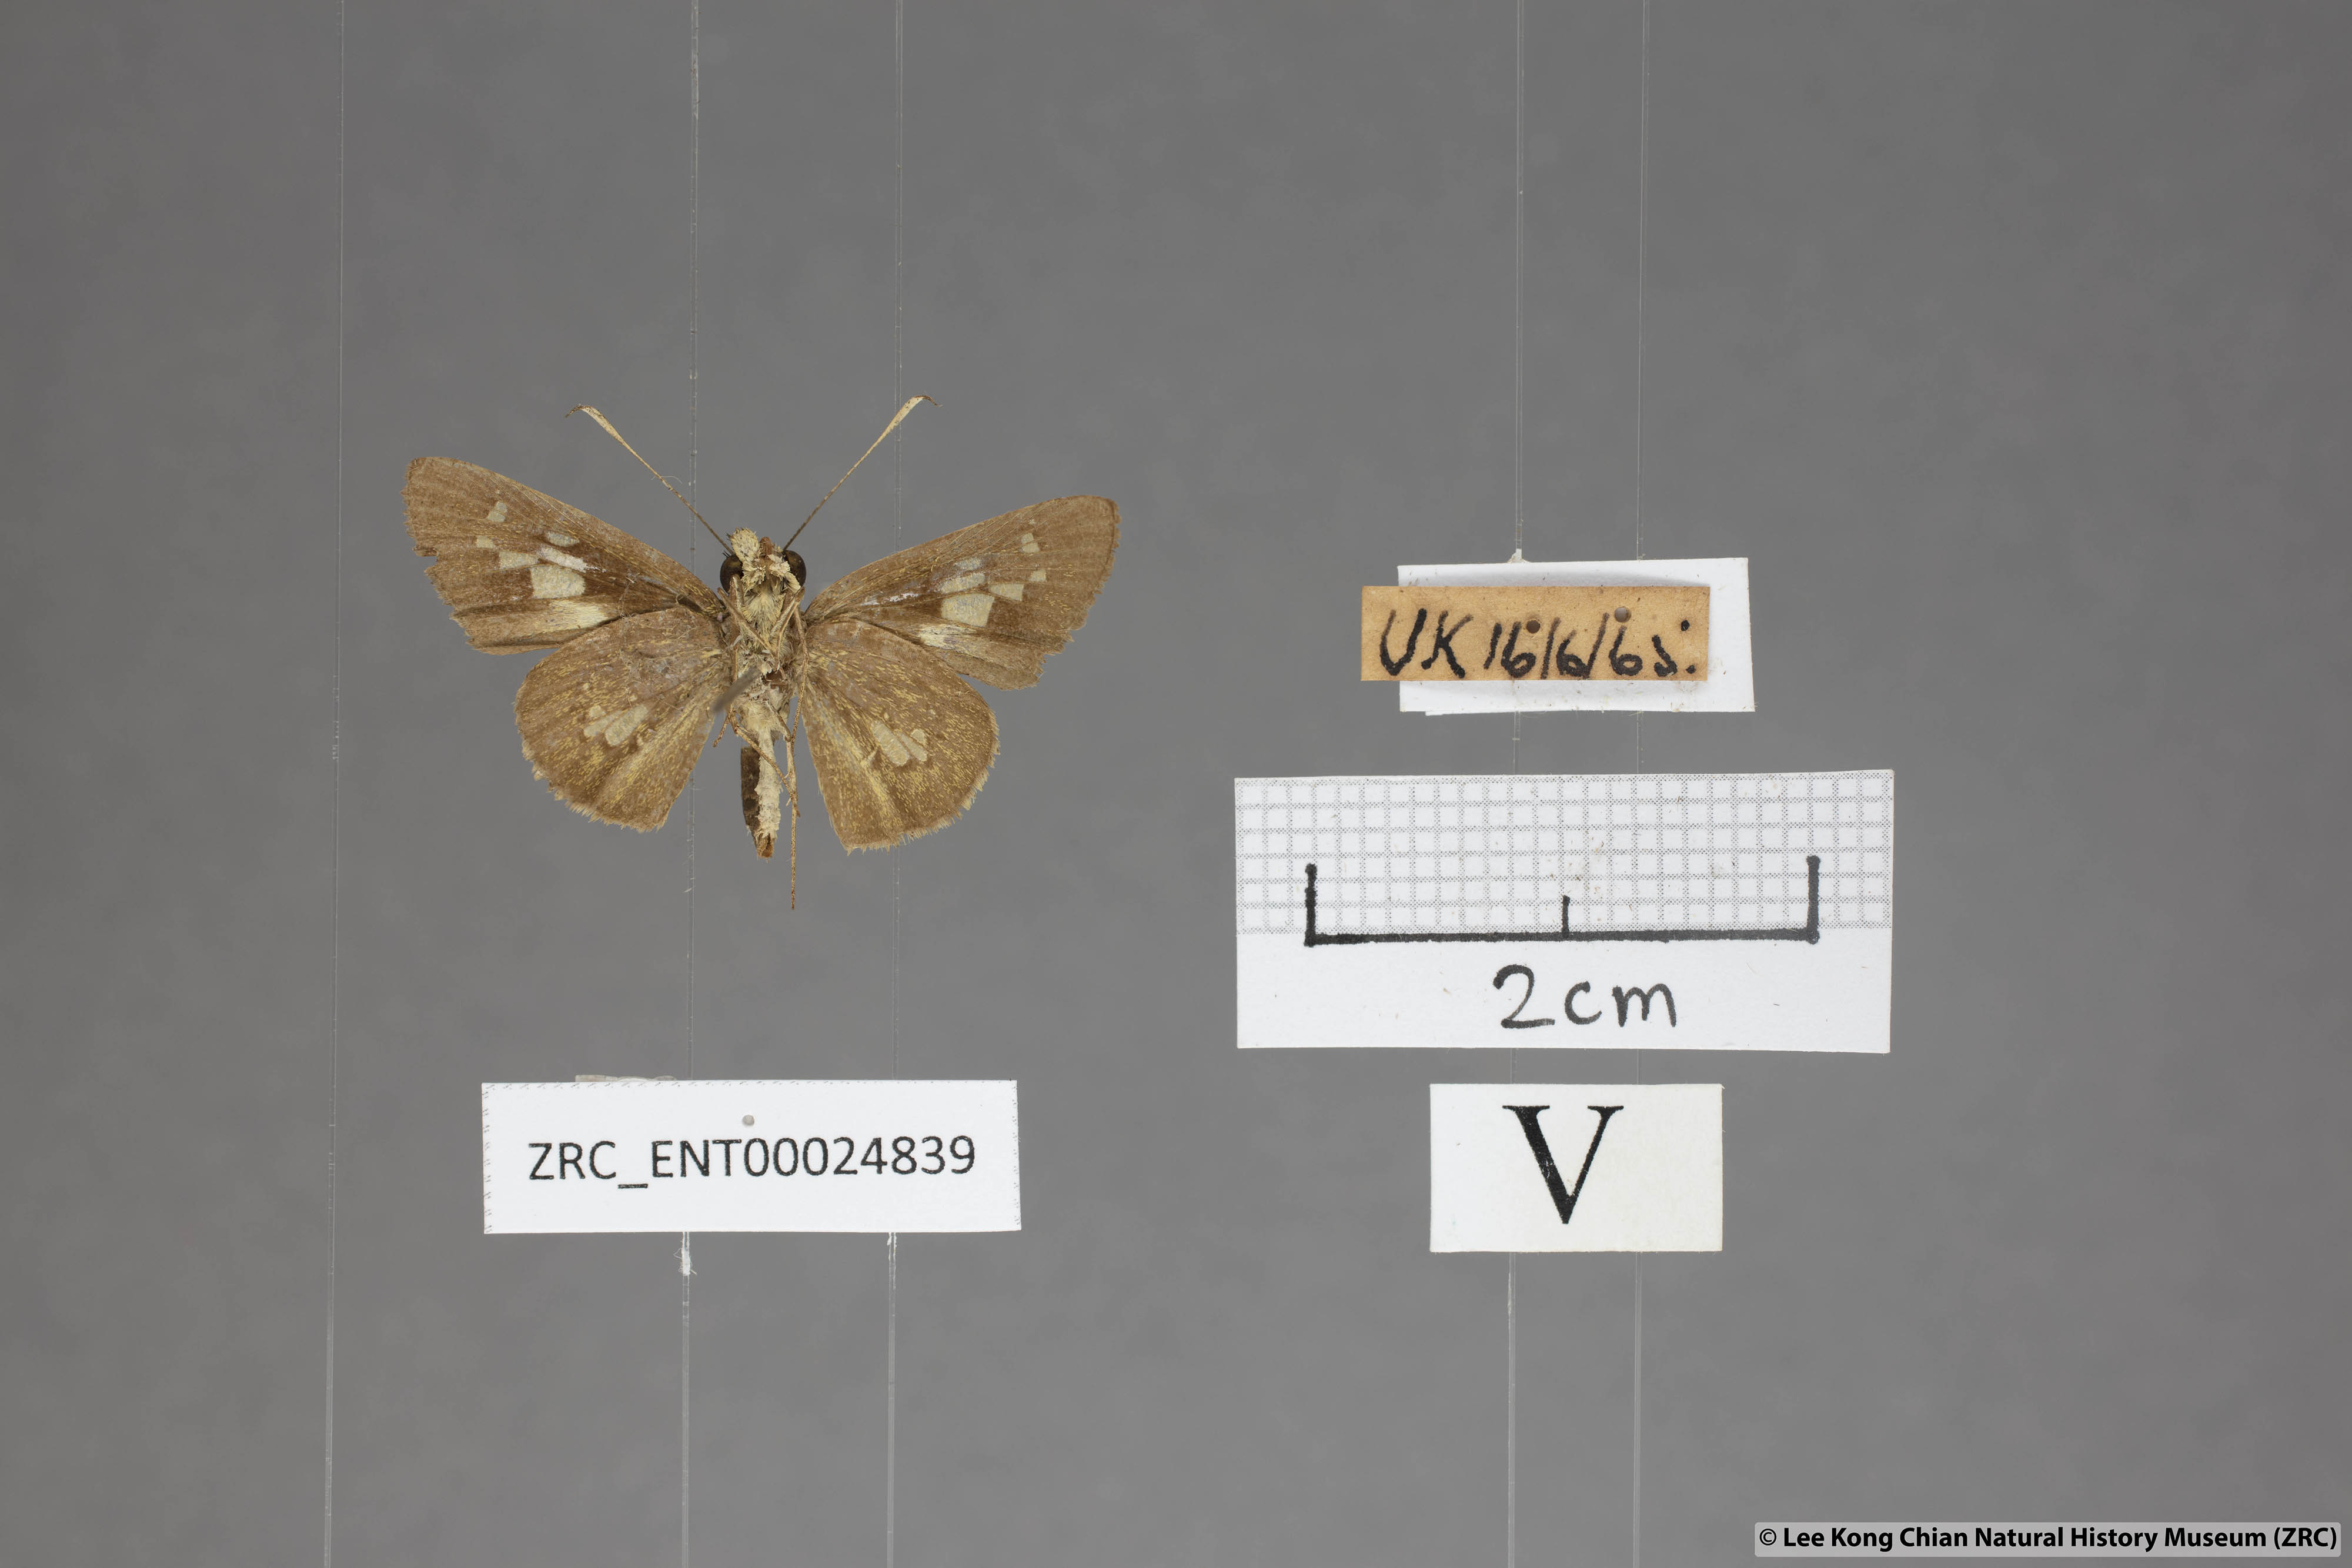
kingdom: Animalia
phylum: Arthropoda
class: Insecta
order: Lepidoptera
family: Hesperiidae
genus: Isma
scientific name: Isma bononia
